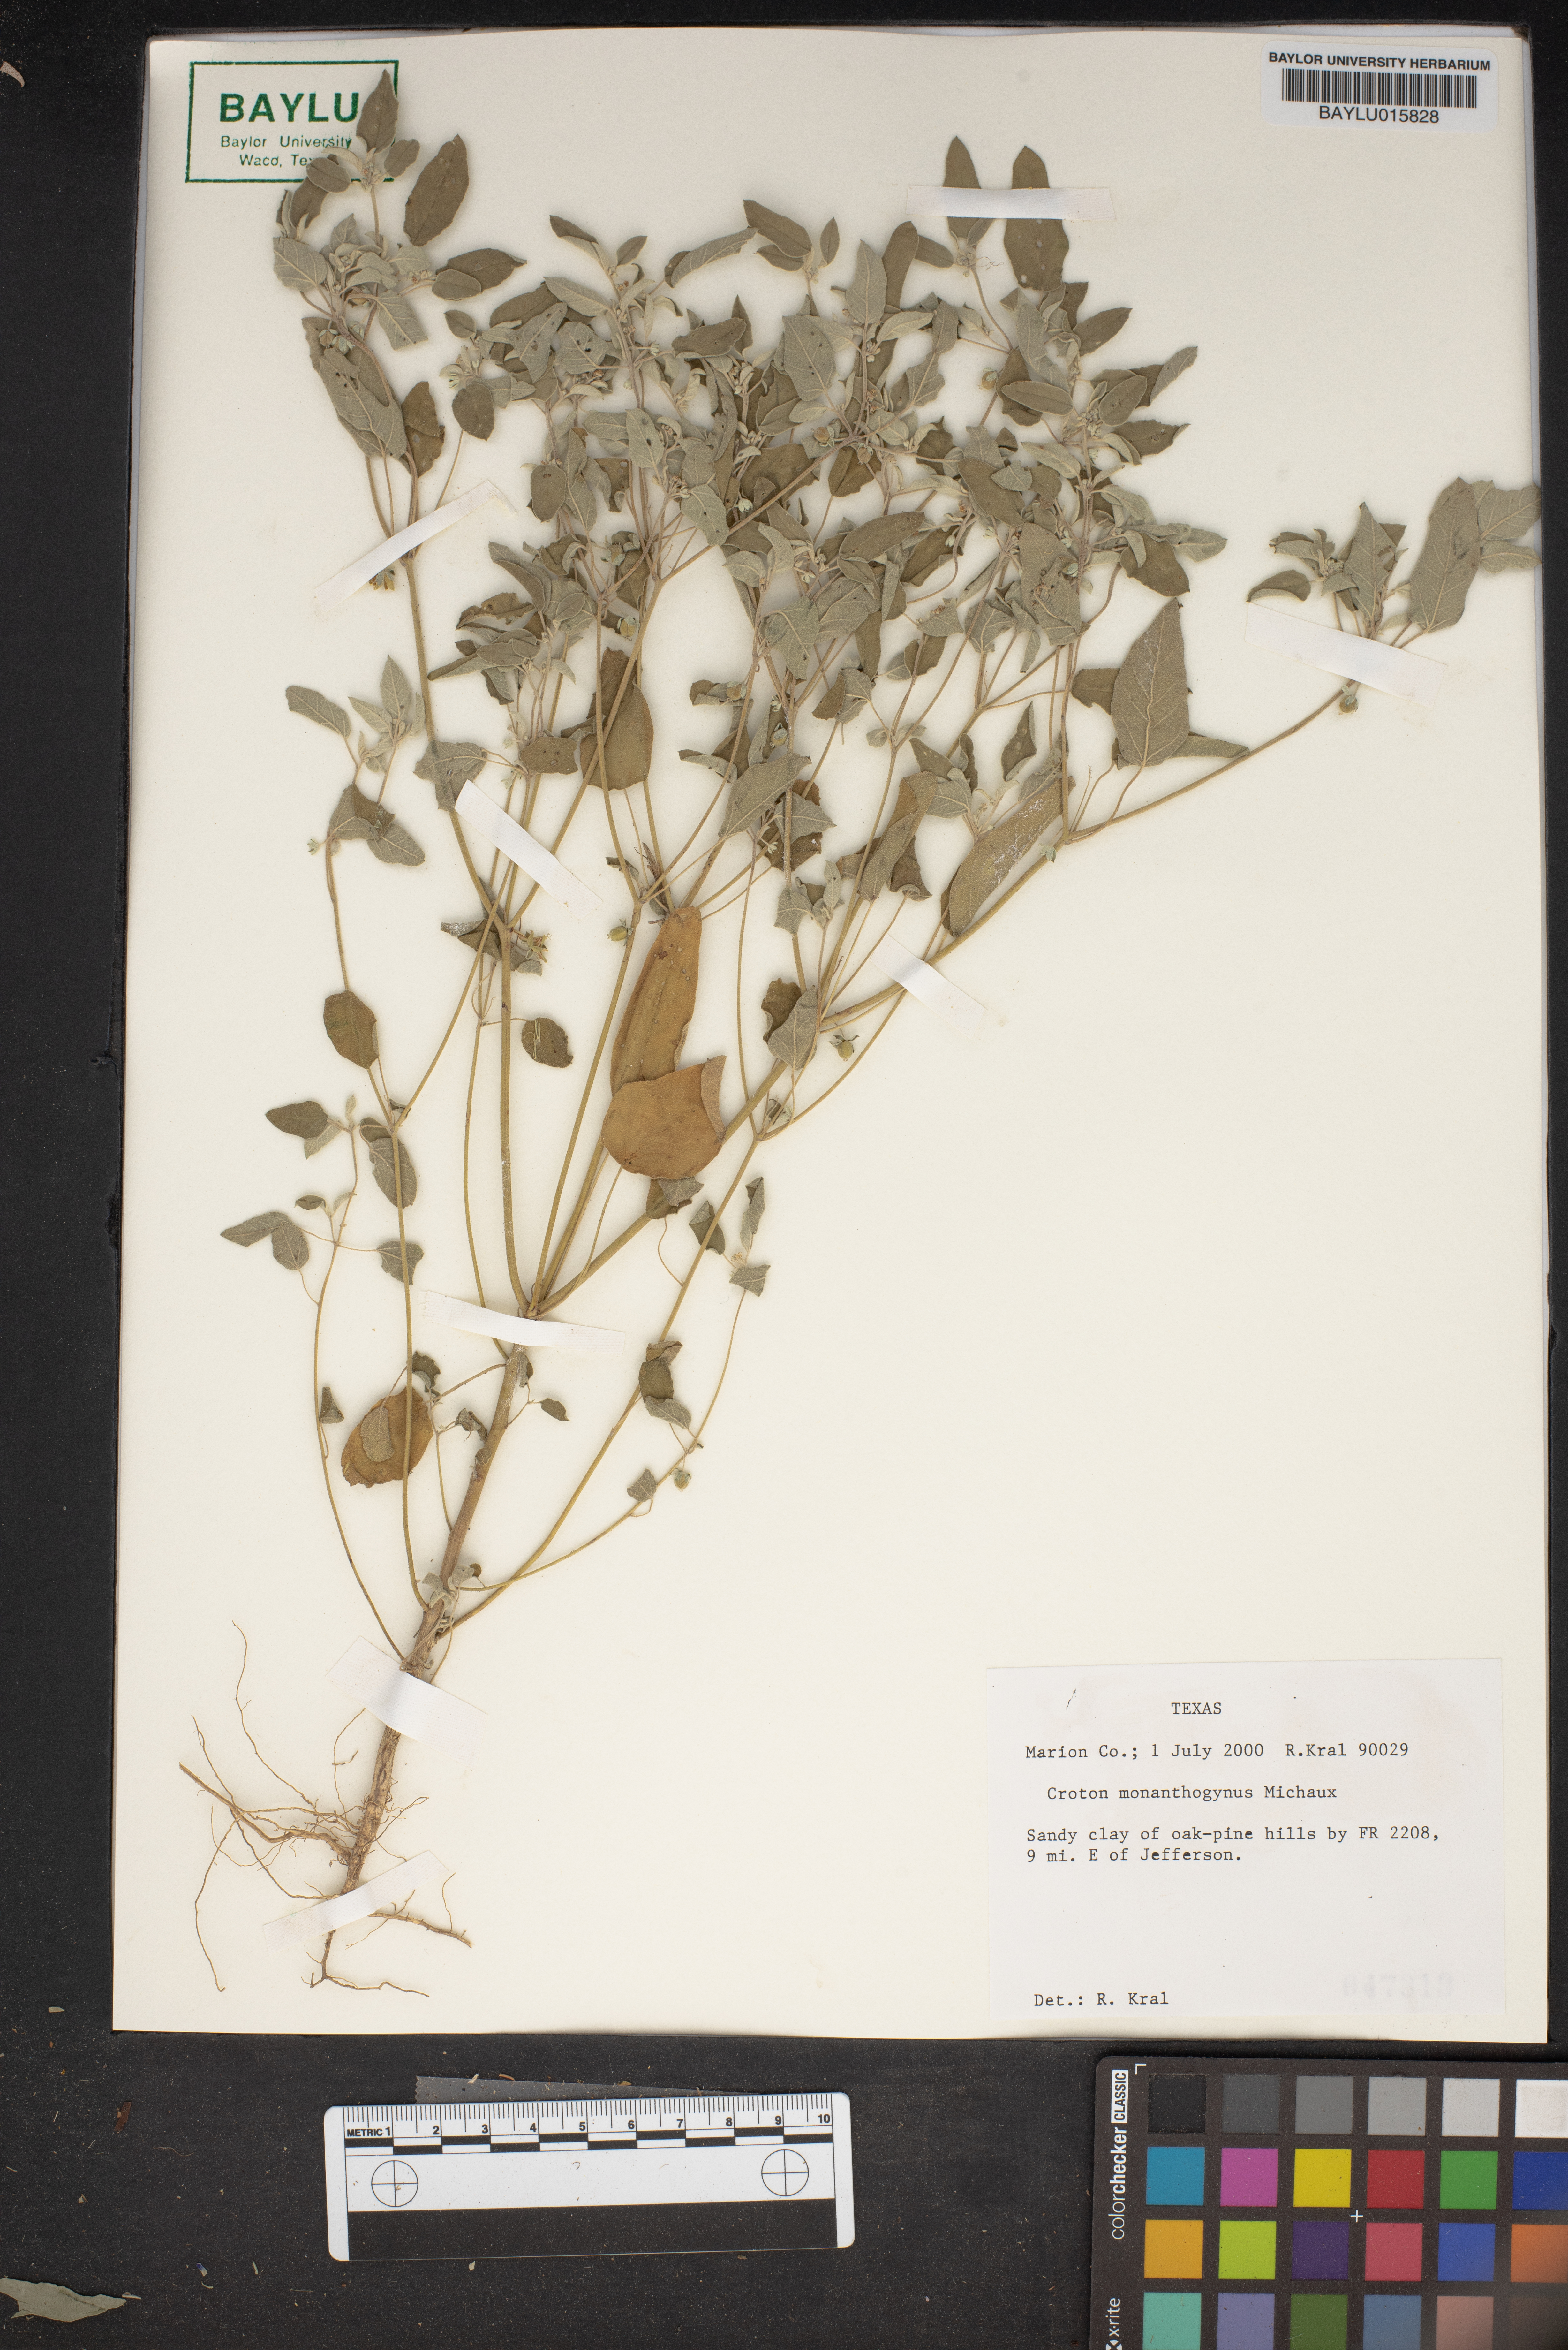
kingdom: Plantae
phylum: Tracheophyta
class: Magnoliopsida
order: Malpighiales
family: Euphorbiaceae
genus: Croton
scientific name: Croton monanthogynus
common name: One-seed croton
